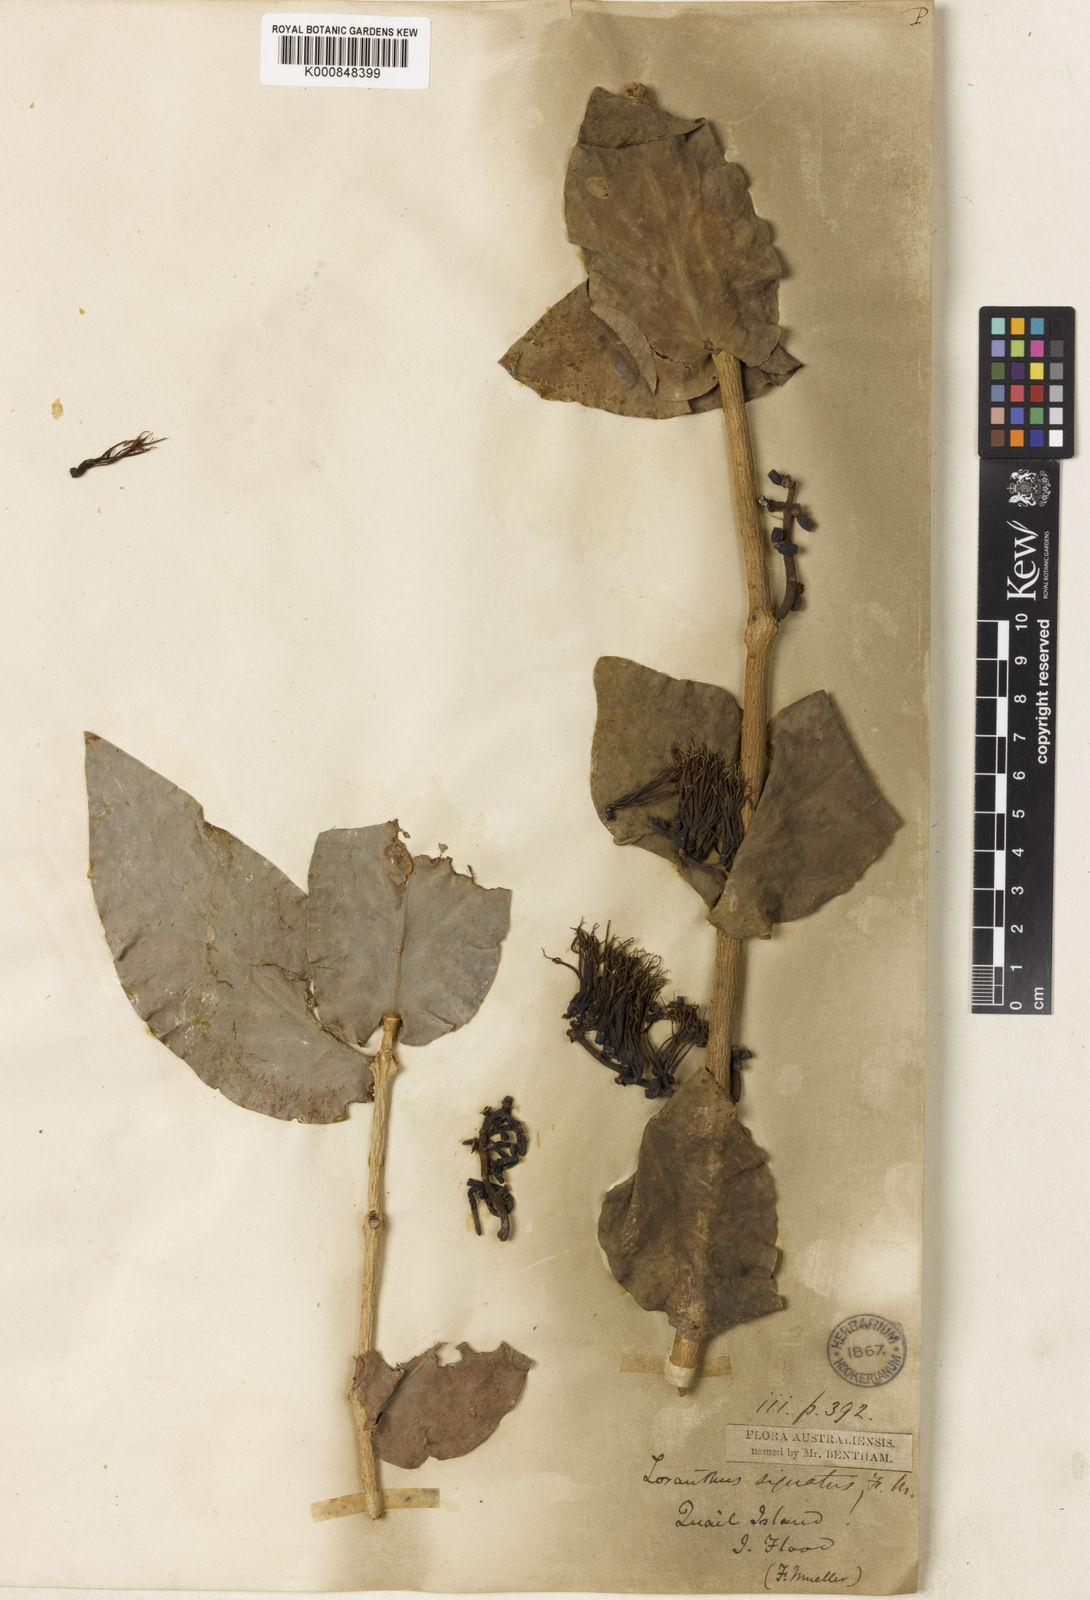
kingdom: Plantae
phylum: Tracheophyta
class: Magnoliopsida
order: Santalales
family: Loranthaceae
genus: Decaisnina
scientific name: Decaisnina signata
